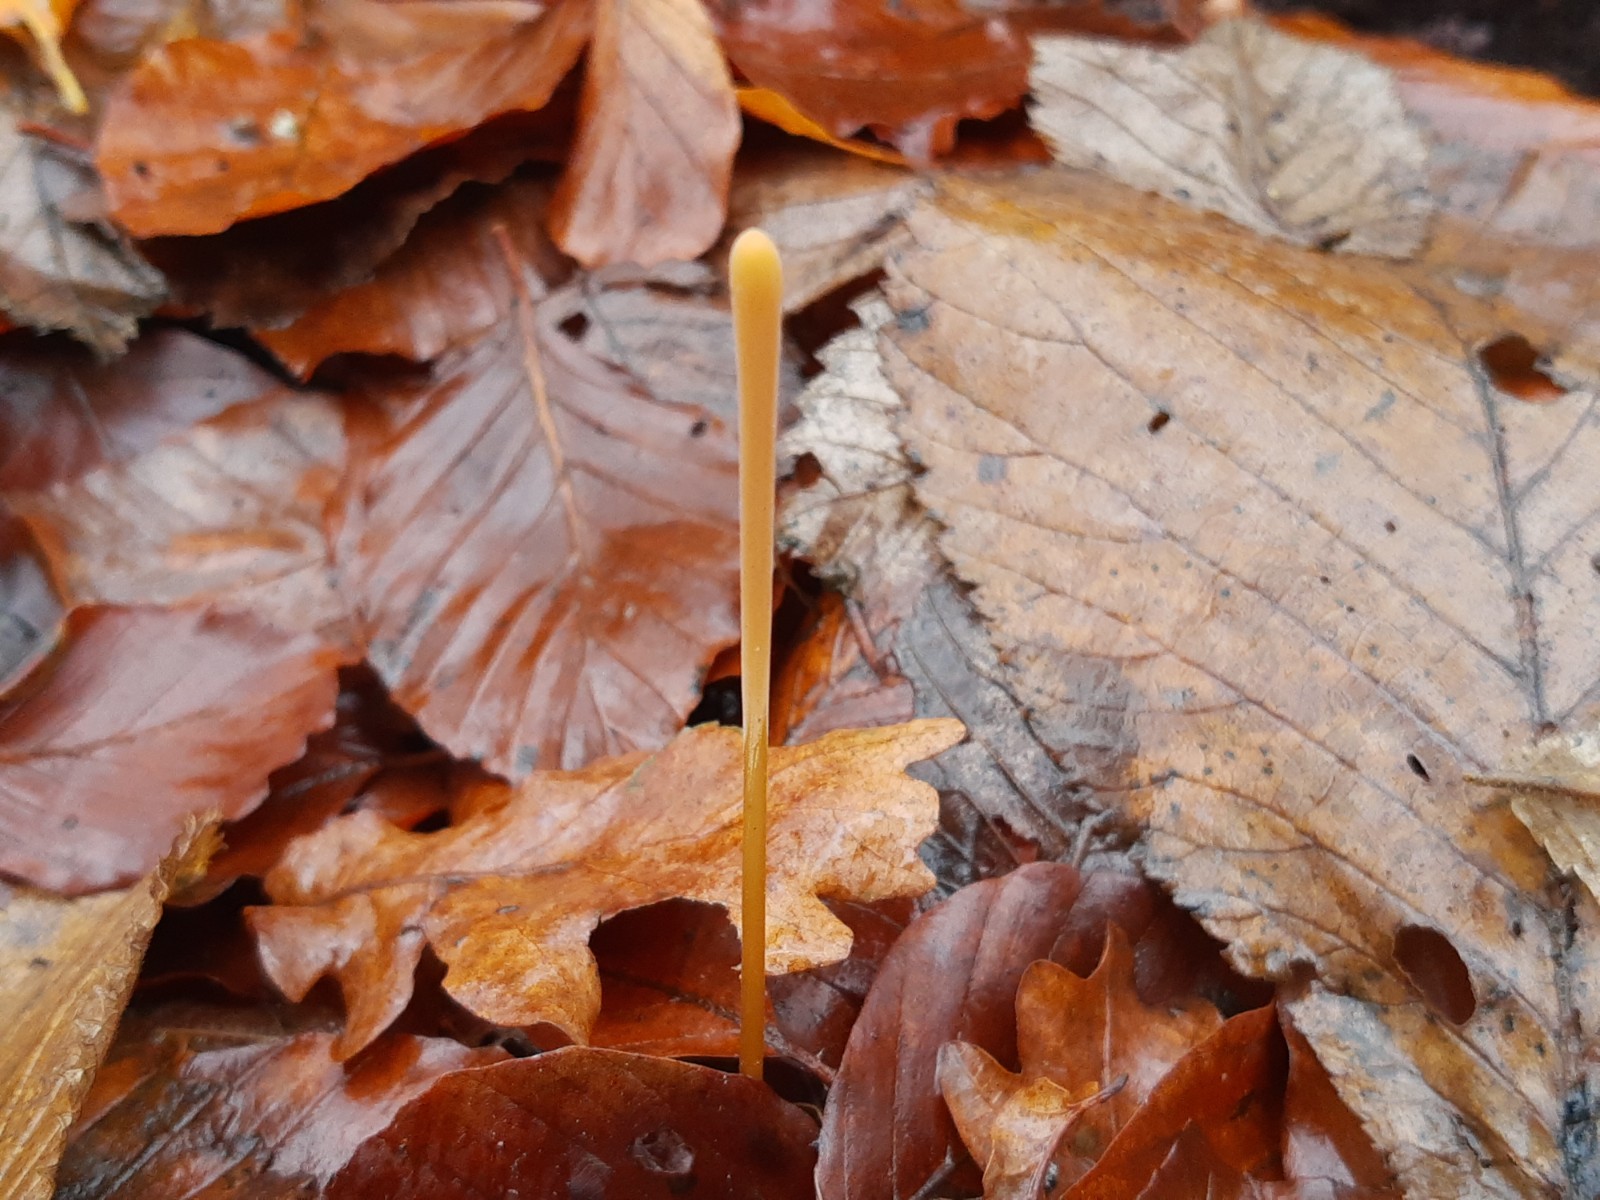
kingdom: Fungi
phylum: Basidiomycota
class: Agaricomycetes
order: Agaricales
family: Typhulaceae
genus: Typhula
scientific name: Typhula fistulosa
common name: pibet rørkølle
